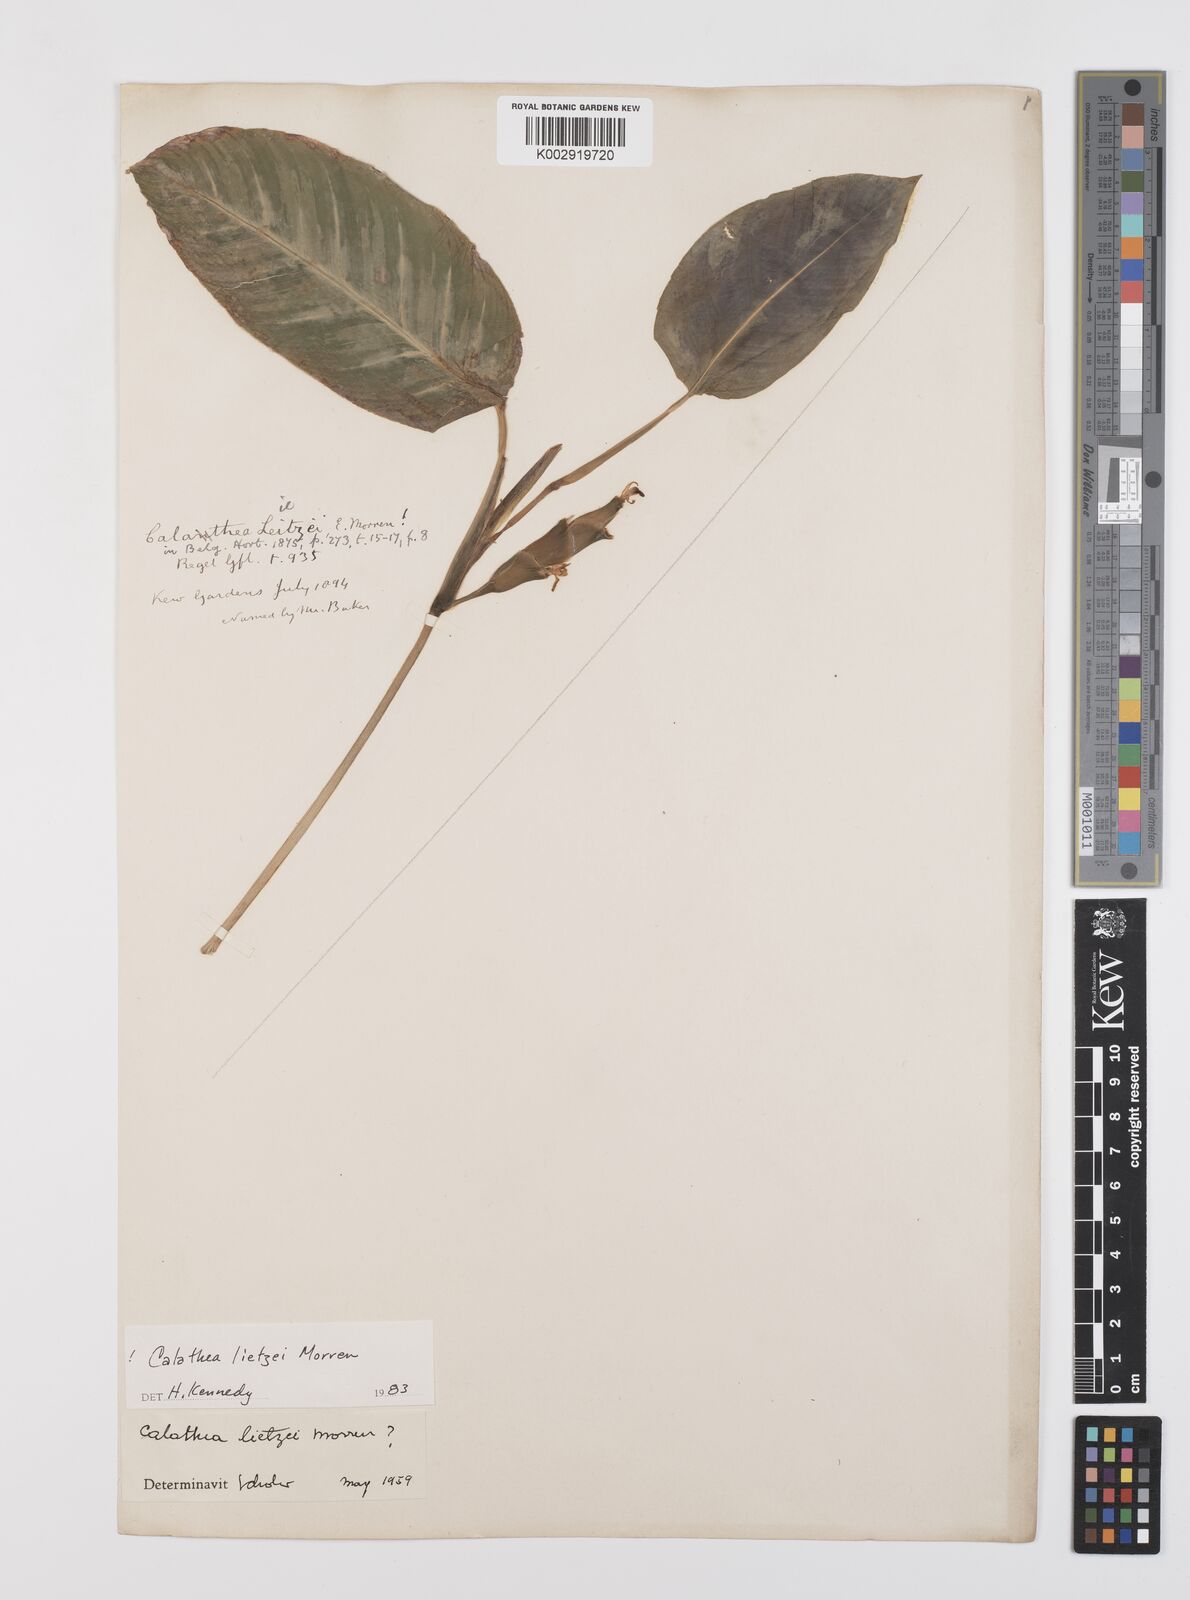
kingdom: Plantae
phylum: Tracheophyta
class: Liliopsida
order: Zingiberales
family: Marantaceae
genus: Goeppertia
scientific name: Goeppertia lietzei
